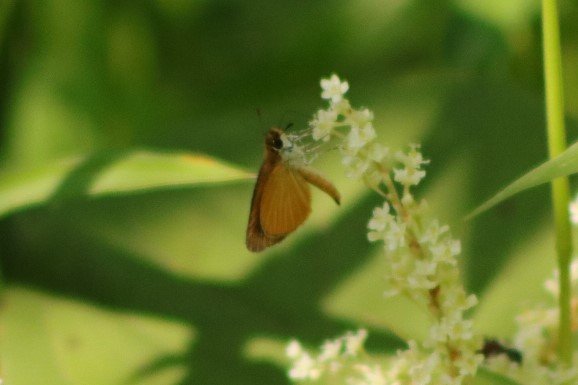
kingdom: Animalia
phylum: Arthropoda
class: Insecta
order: Lepidoptera
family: Hesperiidae
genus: Ancyloxypha
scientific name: Ancyloxypha numitor
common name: Least Skipper
